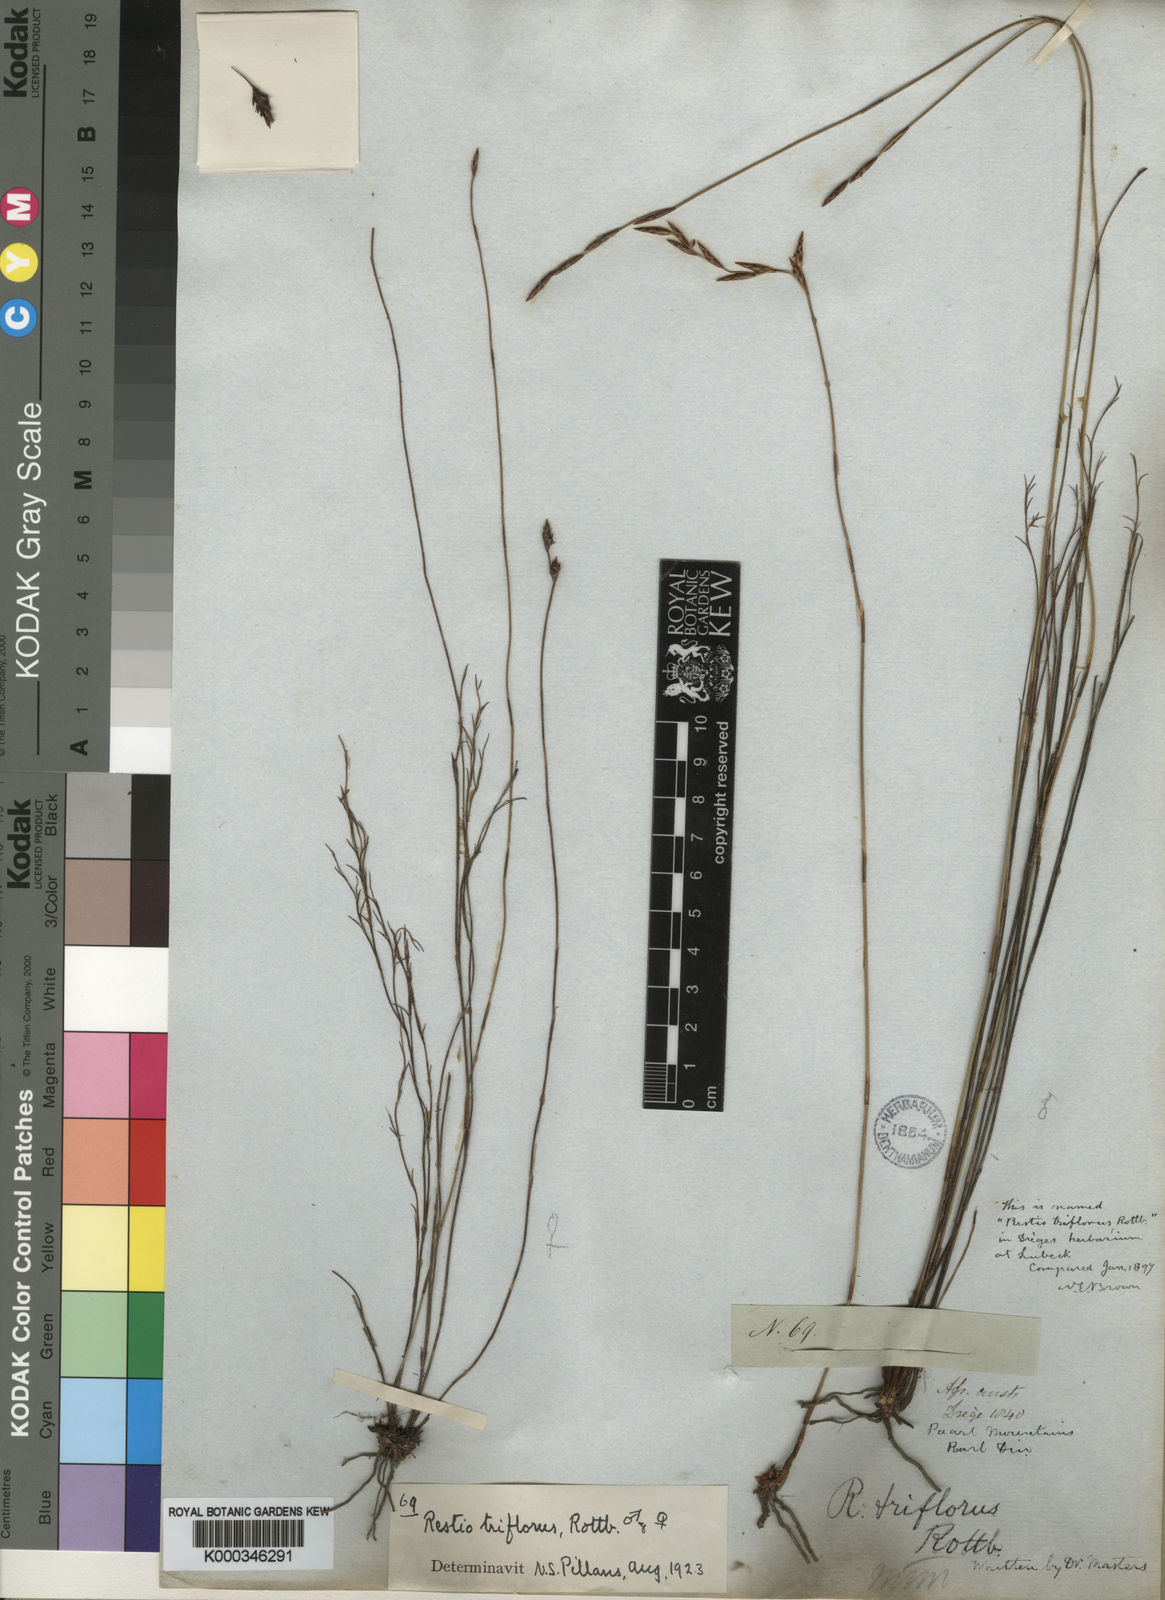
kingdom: Plantae
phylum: Tracheophyta
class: Liliopsida
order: Poales
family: Restionaceae
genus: Restio
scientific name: Restio triflorus
